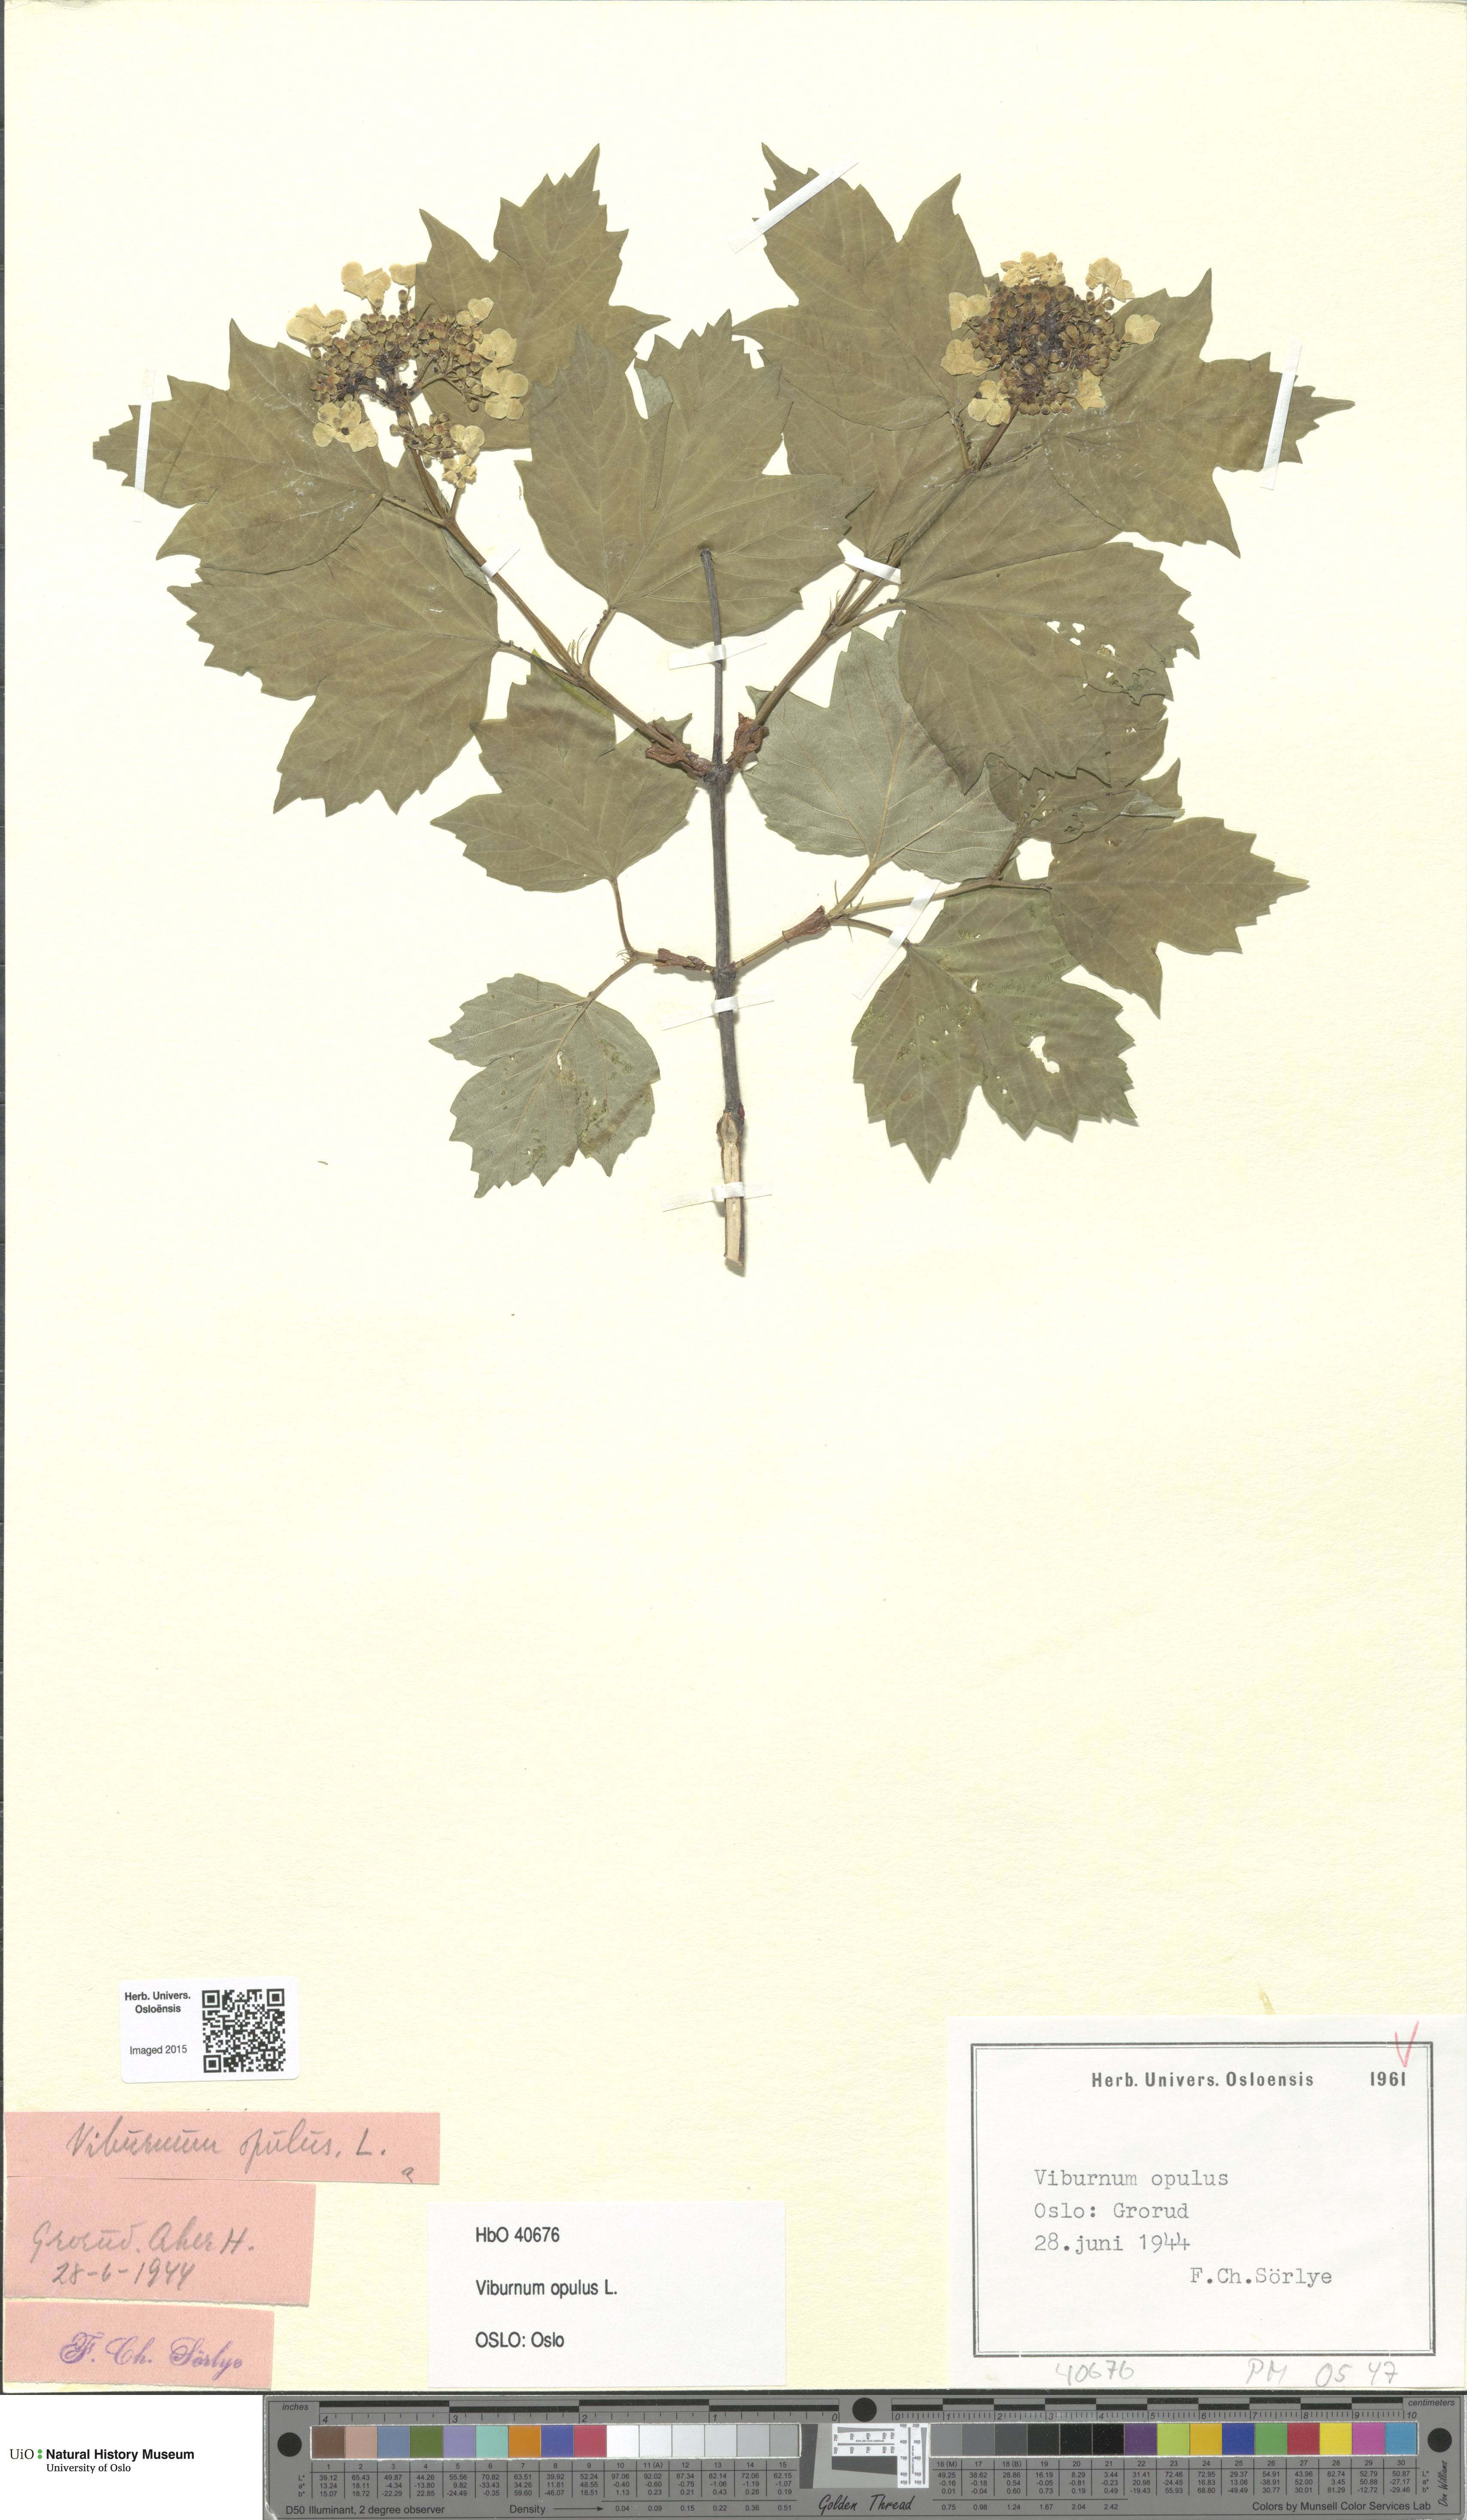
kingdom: Plantae
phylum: Tracheophyta
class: Magnoliopsida
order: Dipsacales
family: Viburnaceae
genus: Viburnum
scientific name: Viburnum opulus
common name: Guelder-rose
